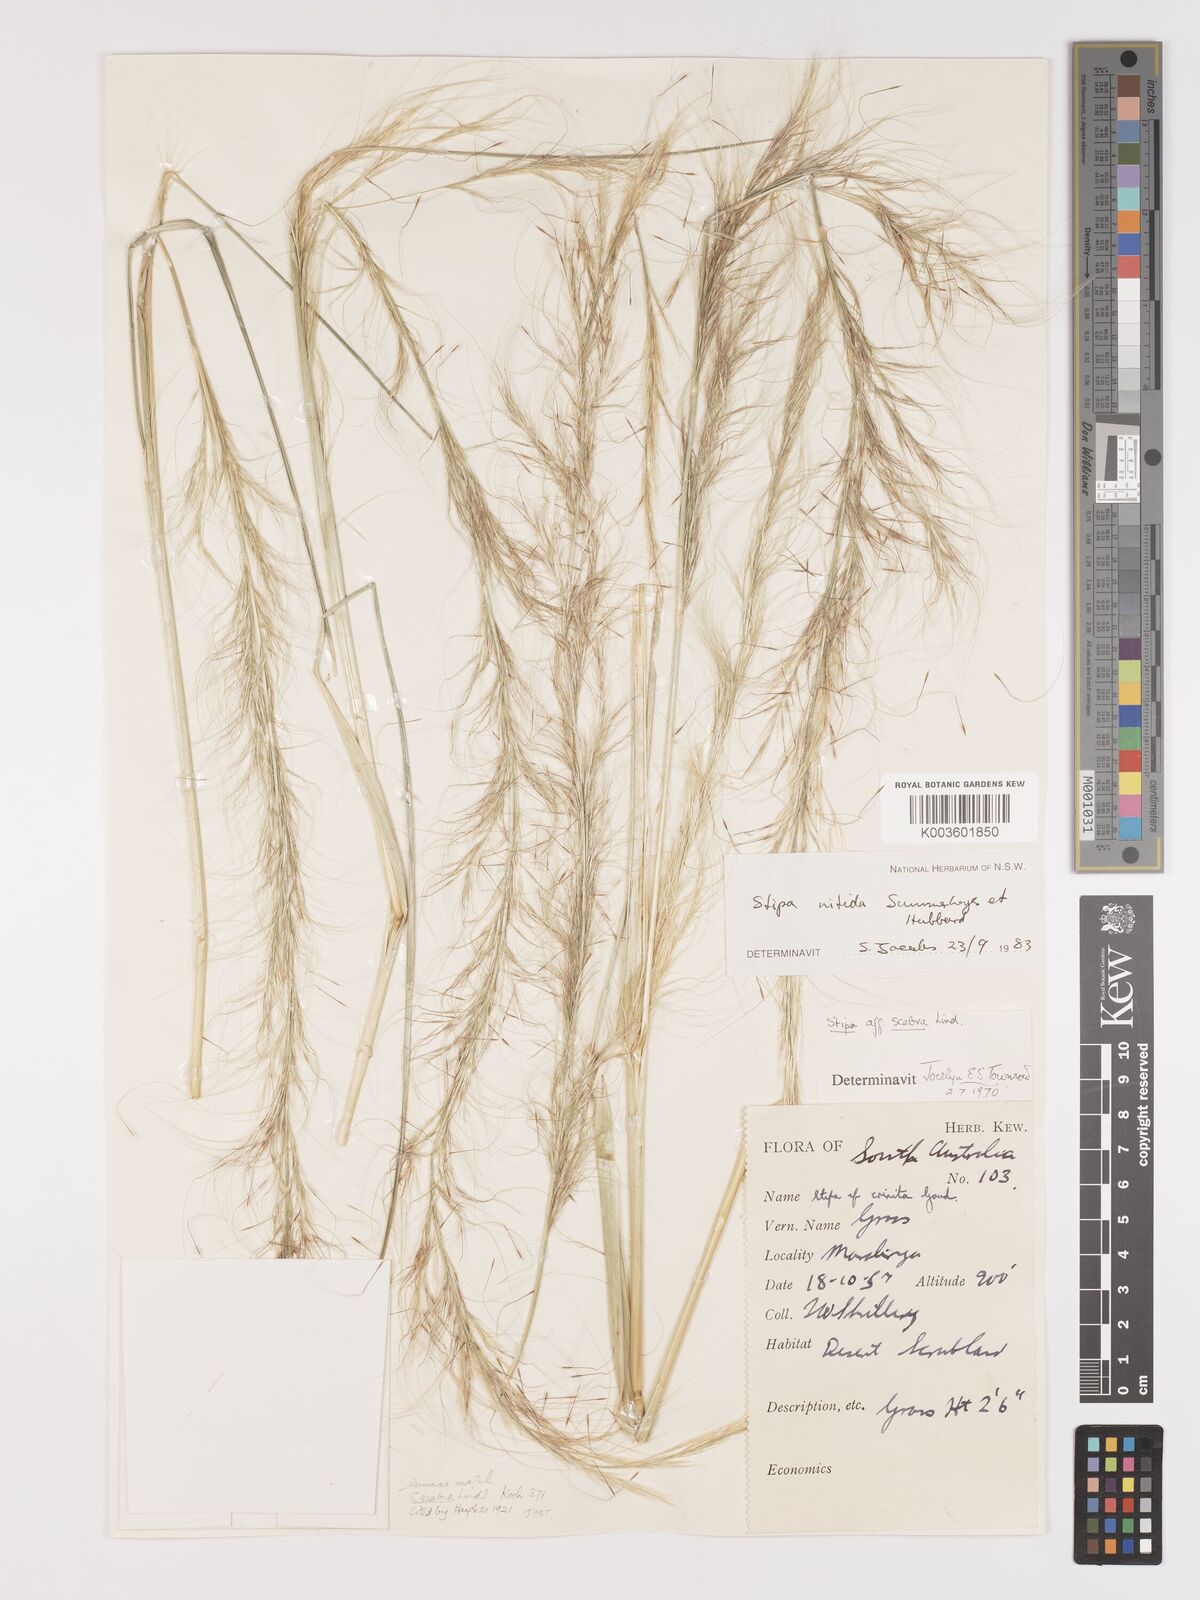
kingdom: Plantae
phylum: Tracheophyta
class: Liliopsida
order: Poales
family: Poaceae
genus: Austrostipa
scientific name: Austrostipa nitida
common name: Balcarra grass
